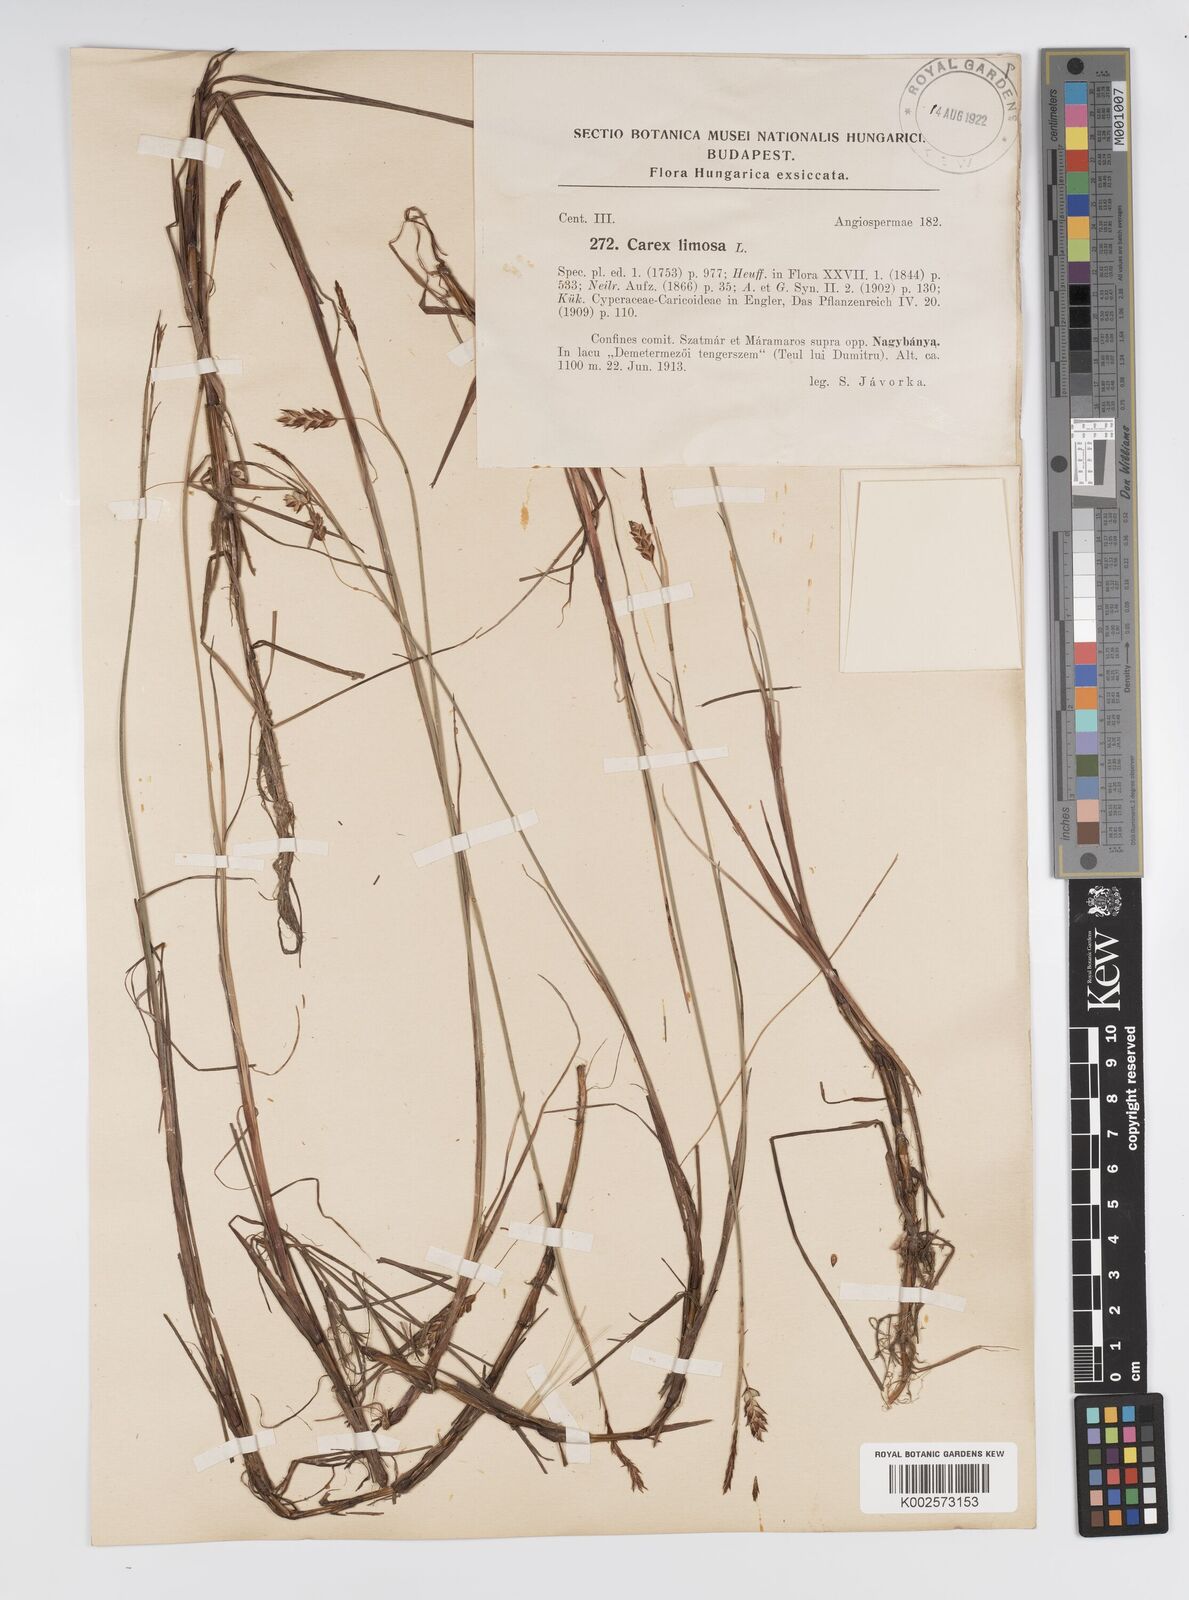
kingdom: Plantae
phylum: Tracheophyta
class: Liliopsida
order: Poales
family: Cyperaceae
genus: Carex
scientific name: Carex limosa
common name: Bog sedge
